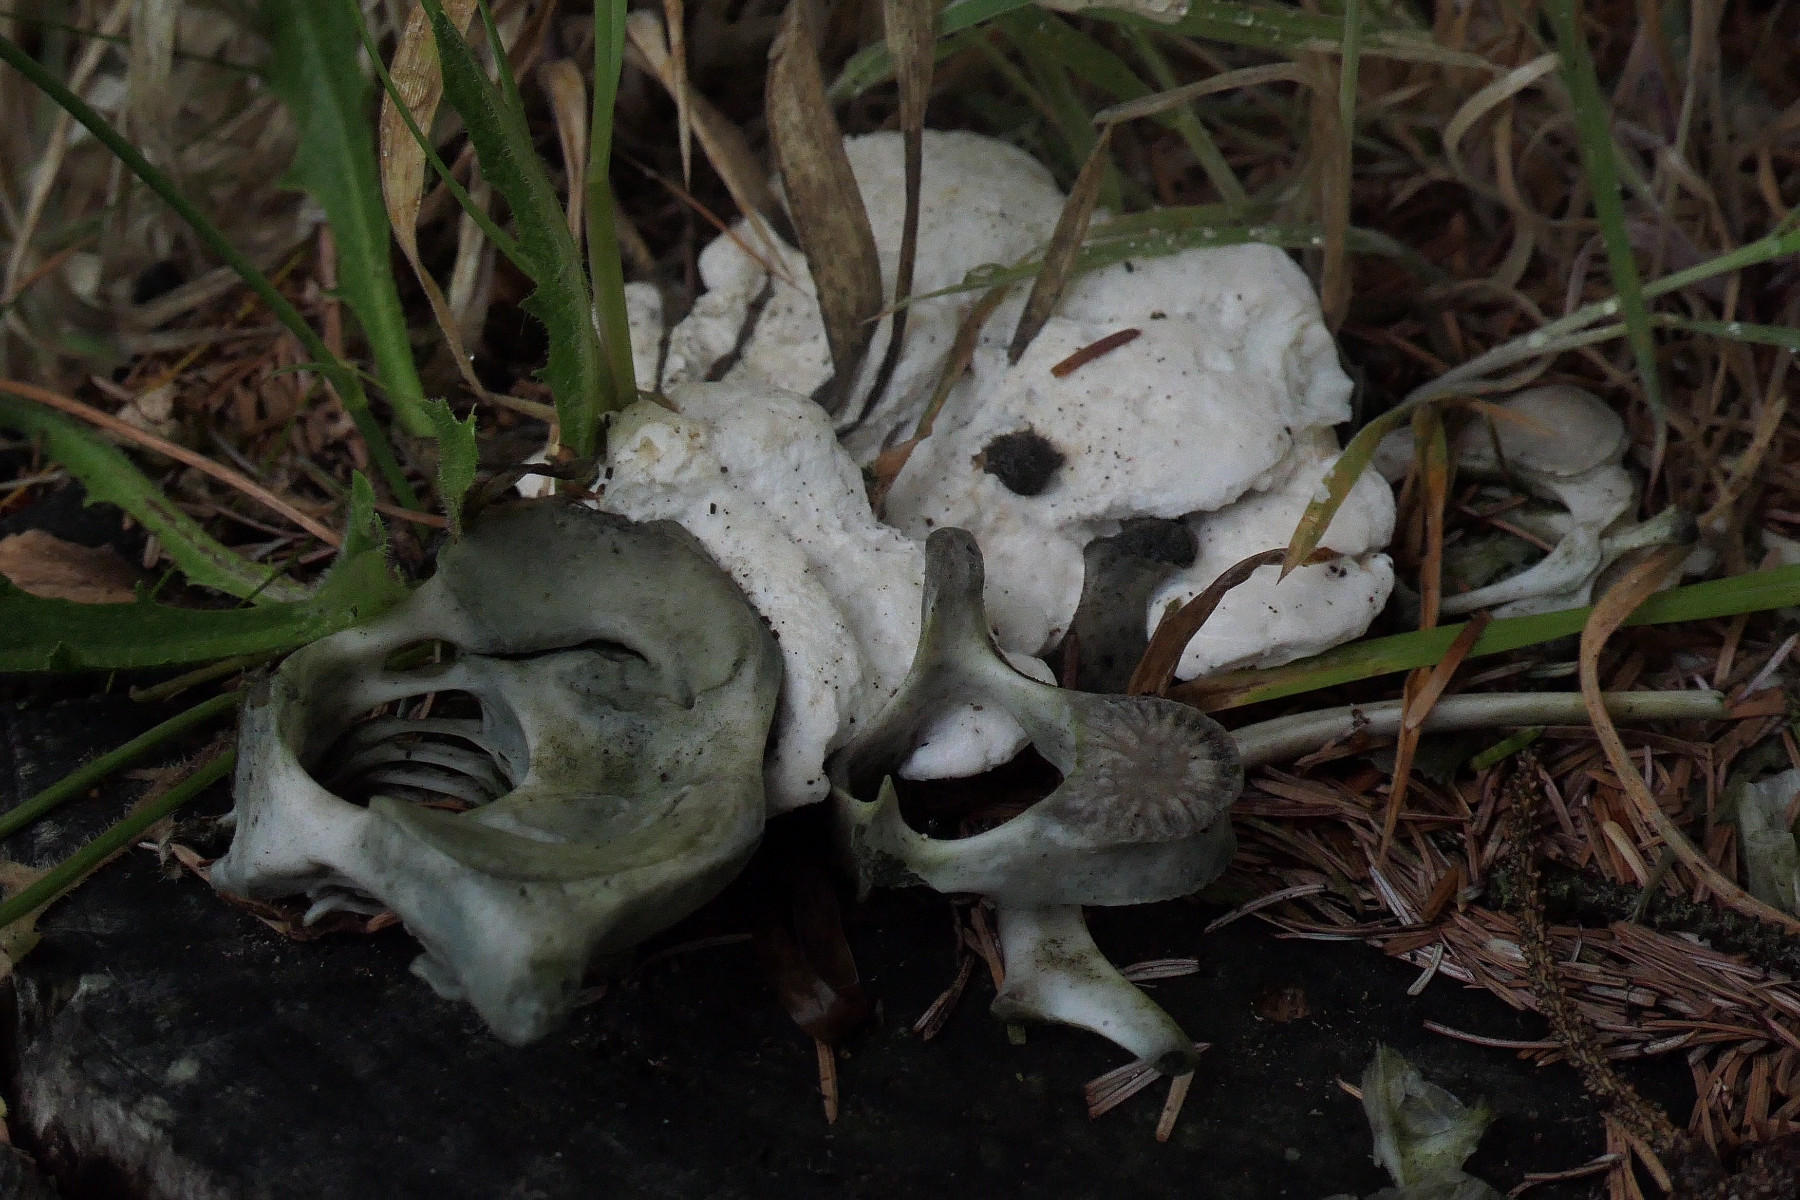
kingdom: Fungi
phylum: Basidiomycota
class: Agaricomycetes
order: Polyporales
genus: Amaropostia
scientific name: Amaropostia stiptica
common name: bitter kødporesvamp
